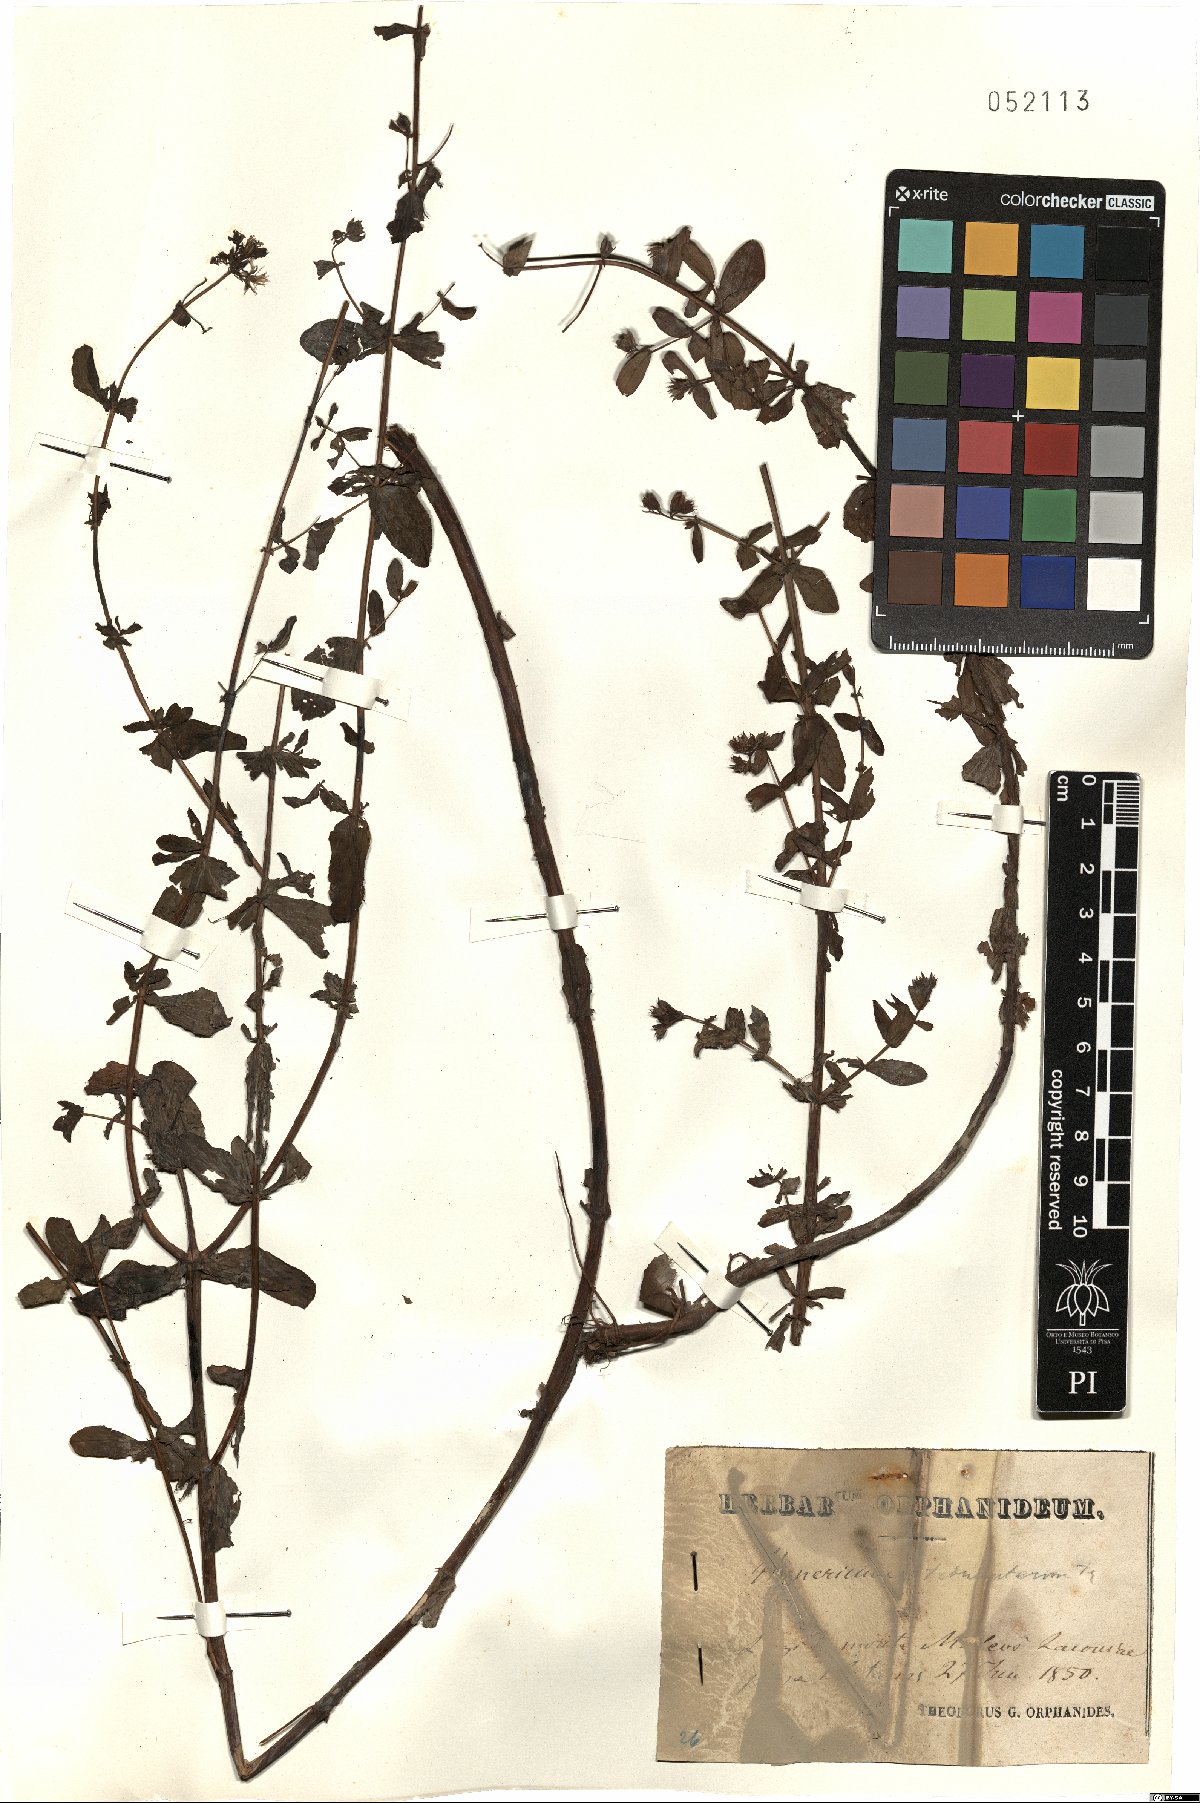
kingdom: Plantae
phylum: Tracheophyta
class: Magnoliopsida
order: Malpighiales
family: Hypericaceae
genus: Hypericum
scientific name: Hypericum tetrapterum
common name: Square-stalked st. john's-wort
